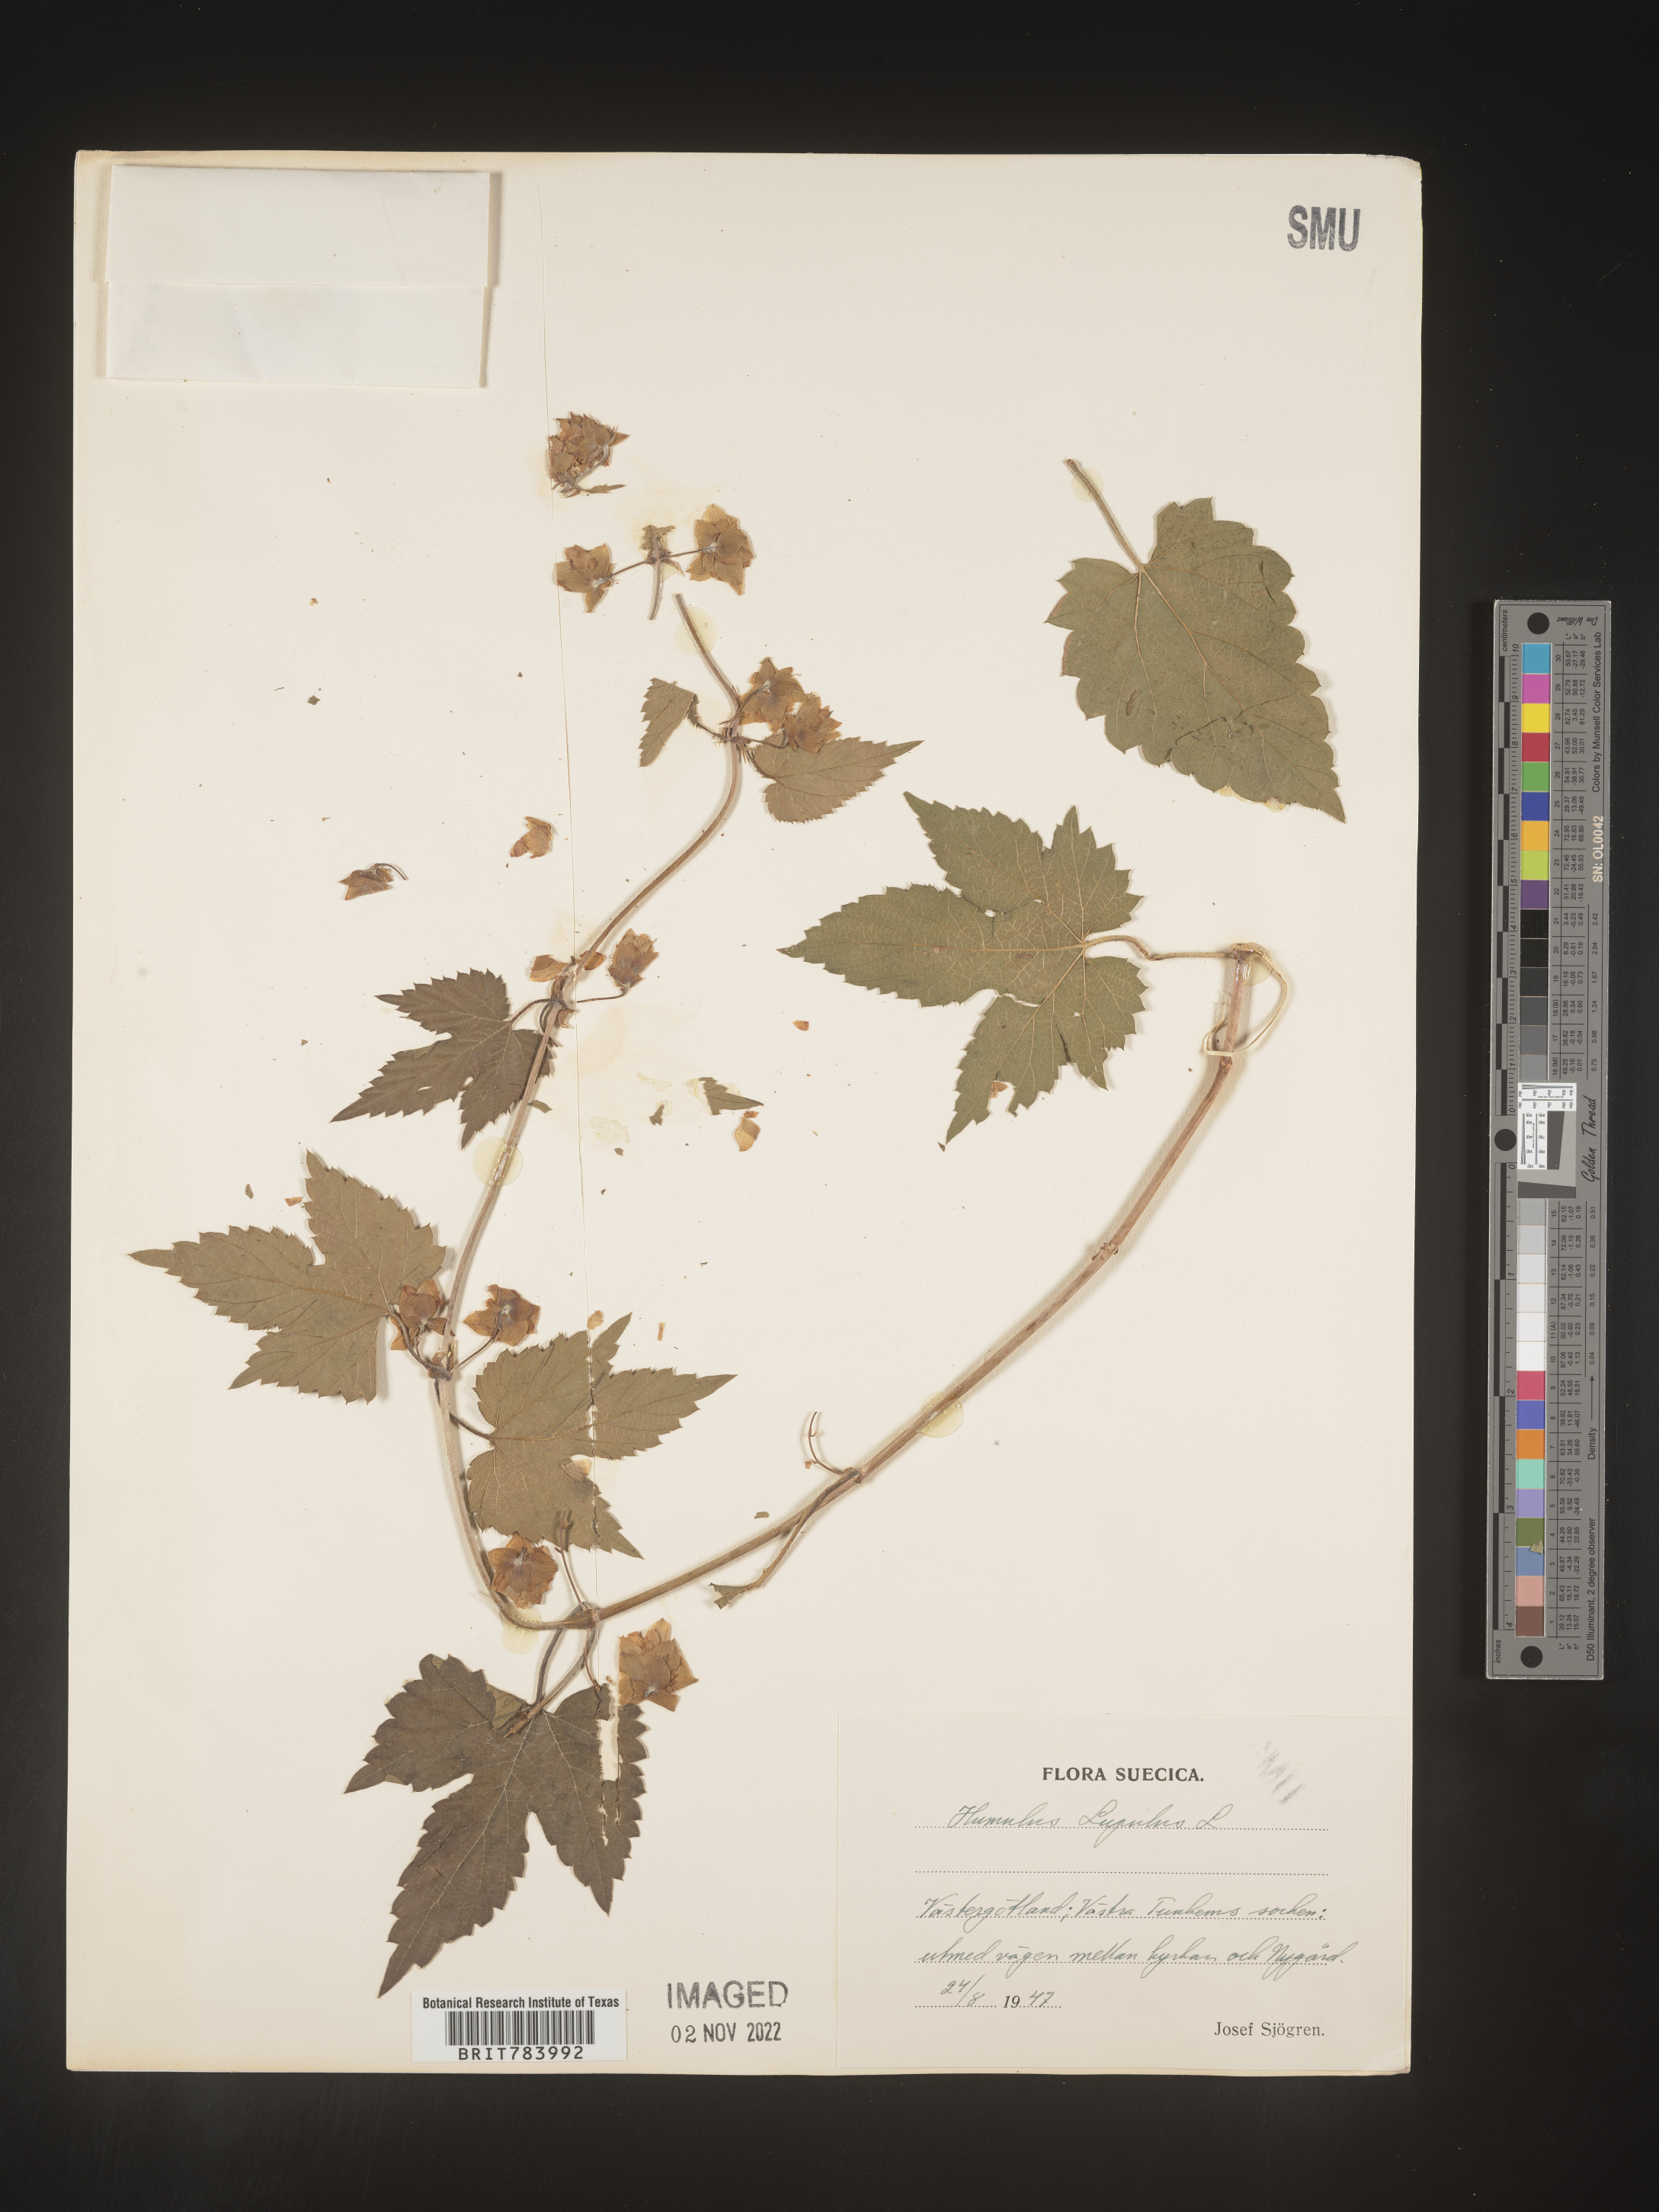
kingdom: Plantae
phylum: Tracheophyta
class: Magnoliopsida
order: Rosales
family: Cannabaceae
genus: Humulus
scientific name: Humulus
